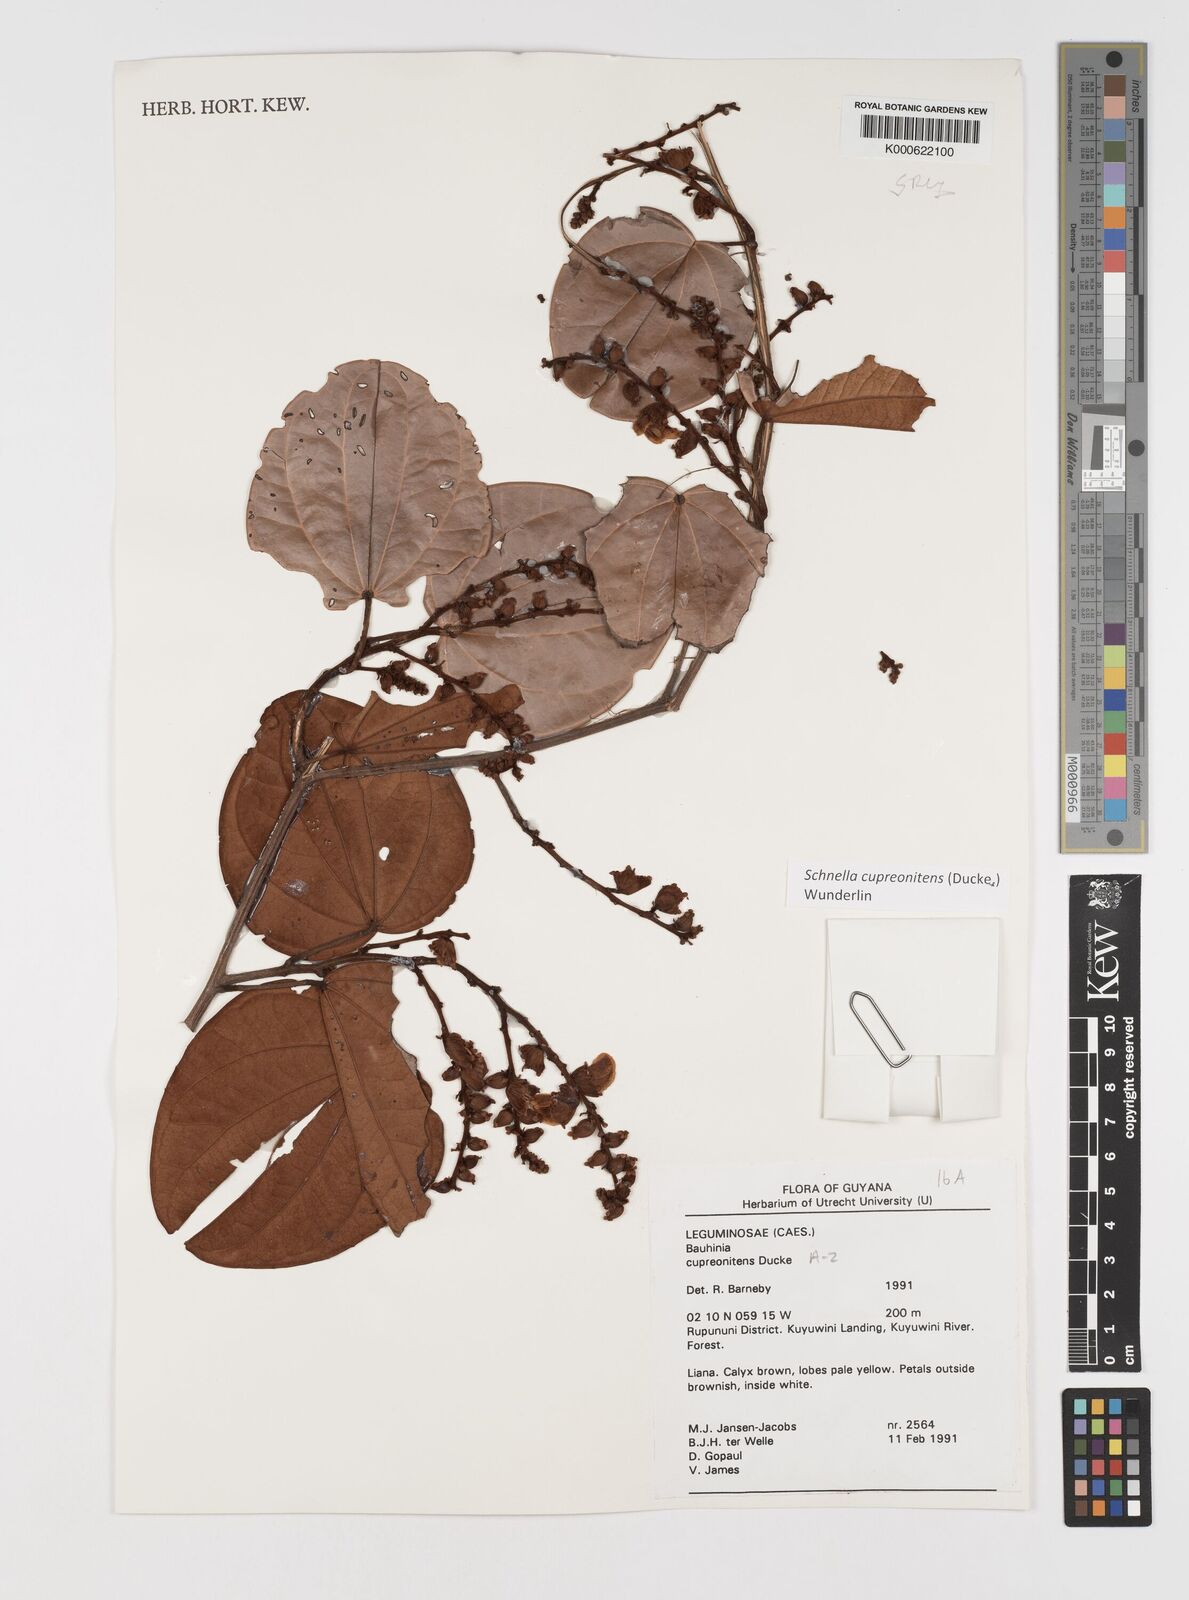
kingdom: Plantae
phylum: Tracheophyta
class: Magnoliopsida
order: Fabales
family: Fabaceae
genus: Schnella
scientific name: Schnella cupreonitens
